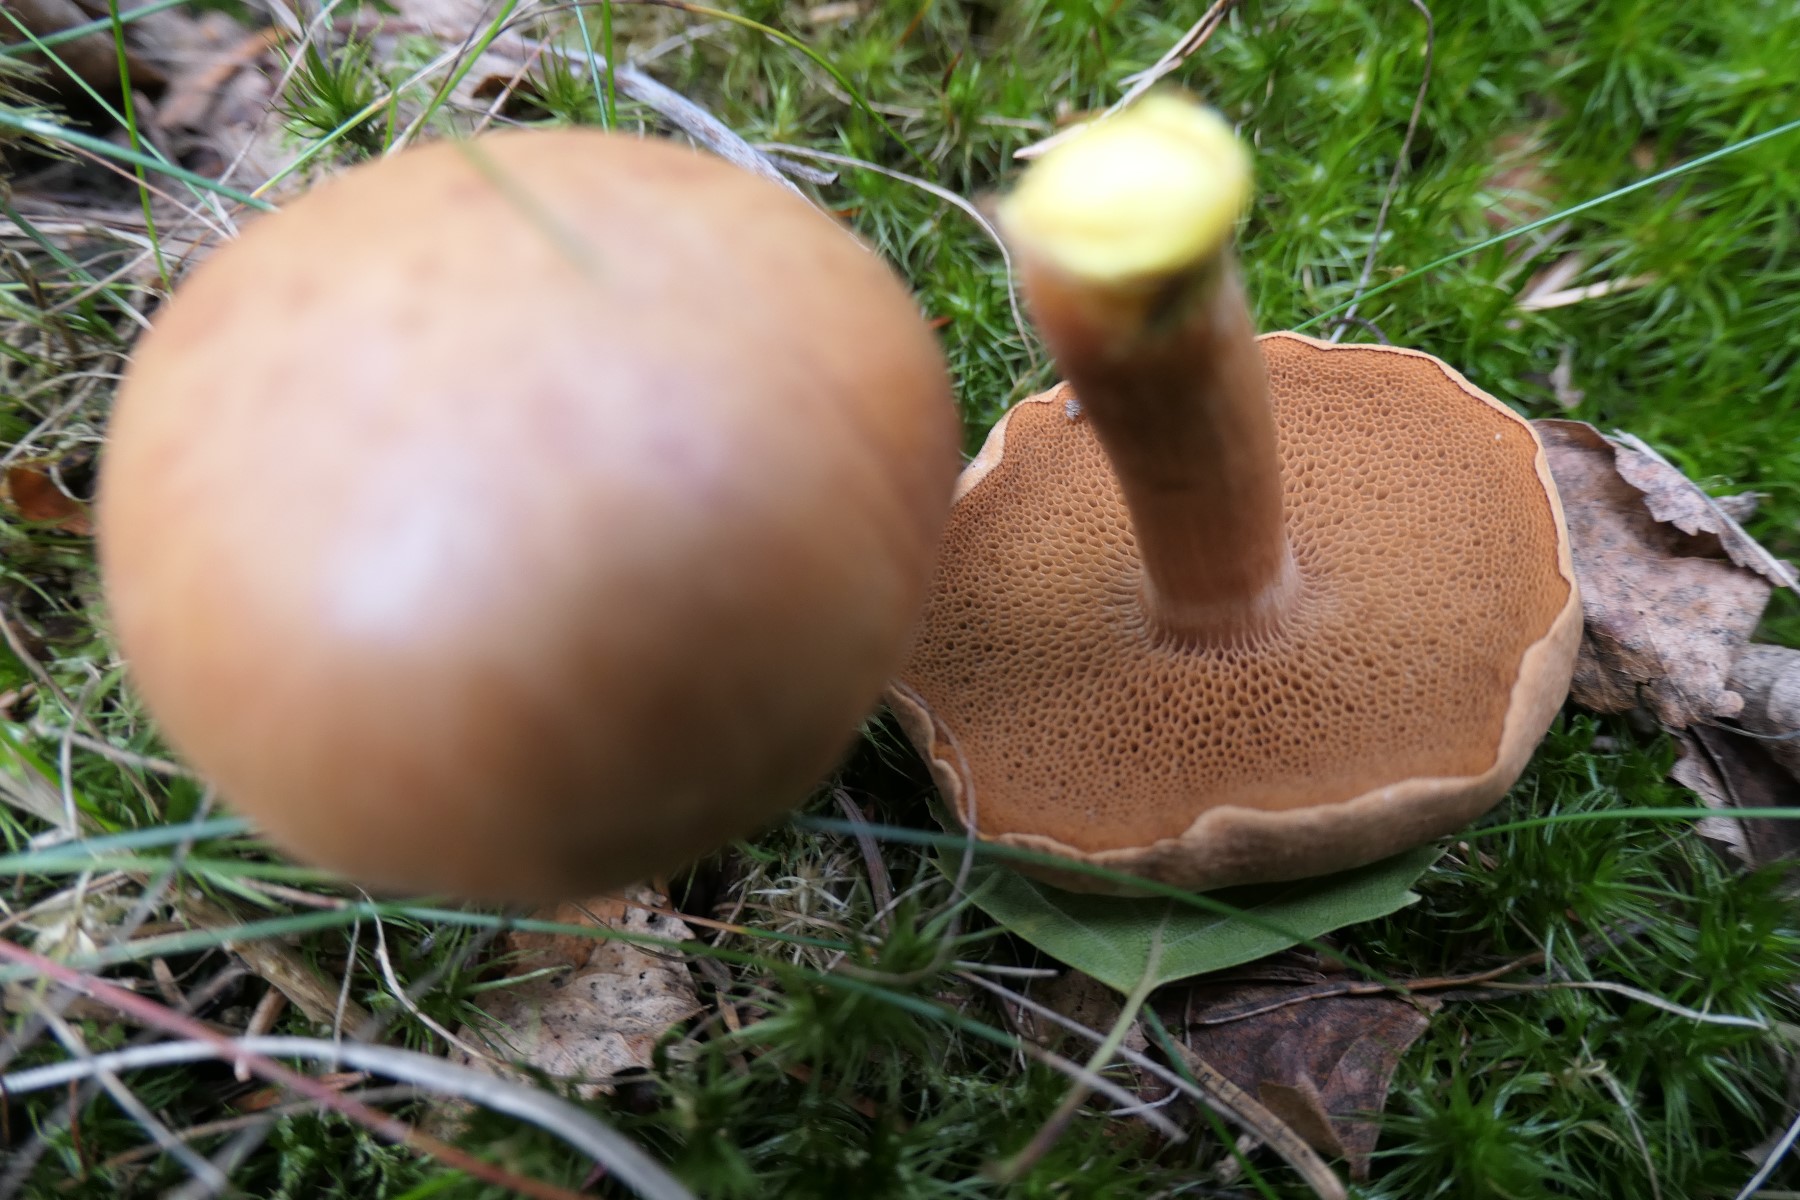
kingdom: Fungi
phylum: Basidiomycota
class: Agaricomycetes
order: Boletales
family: Boletaceae
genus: Chalciporus
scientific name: Chalciporus piperatus
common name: peberrørhat
